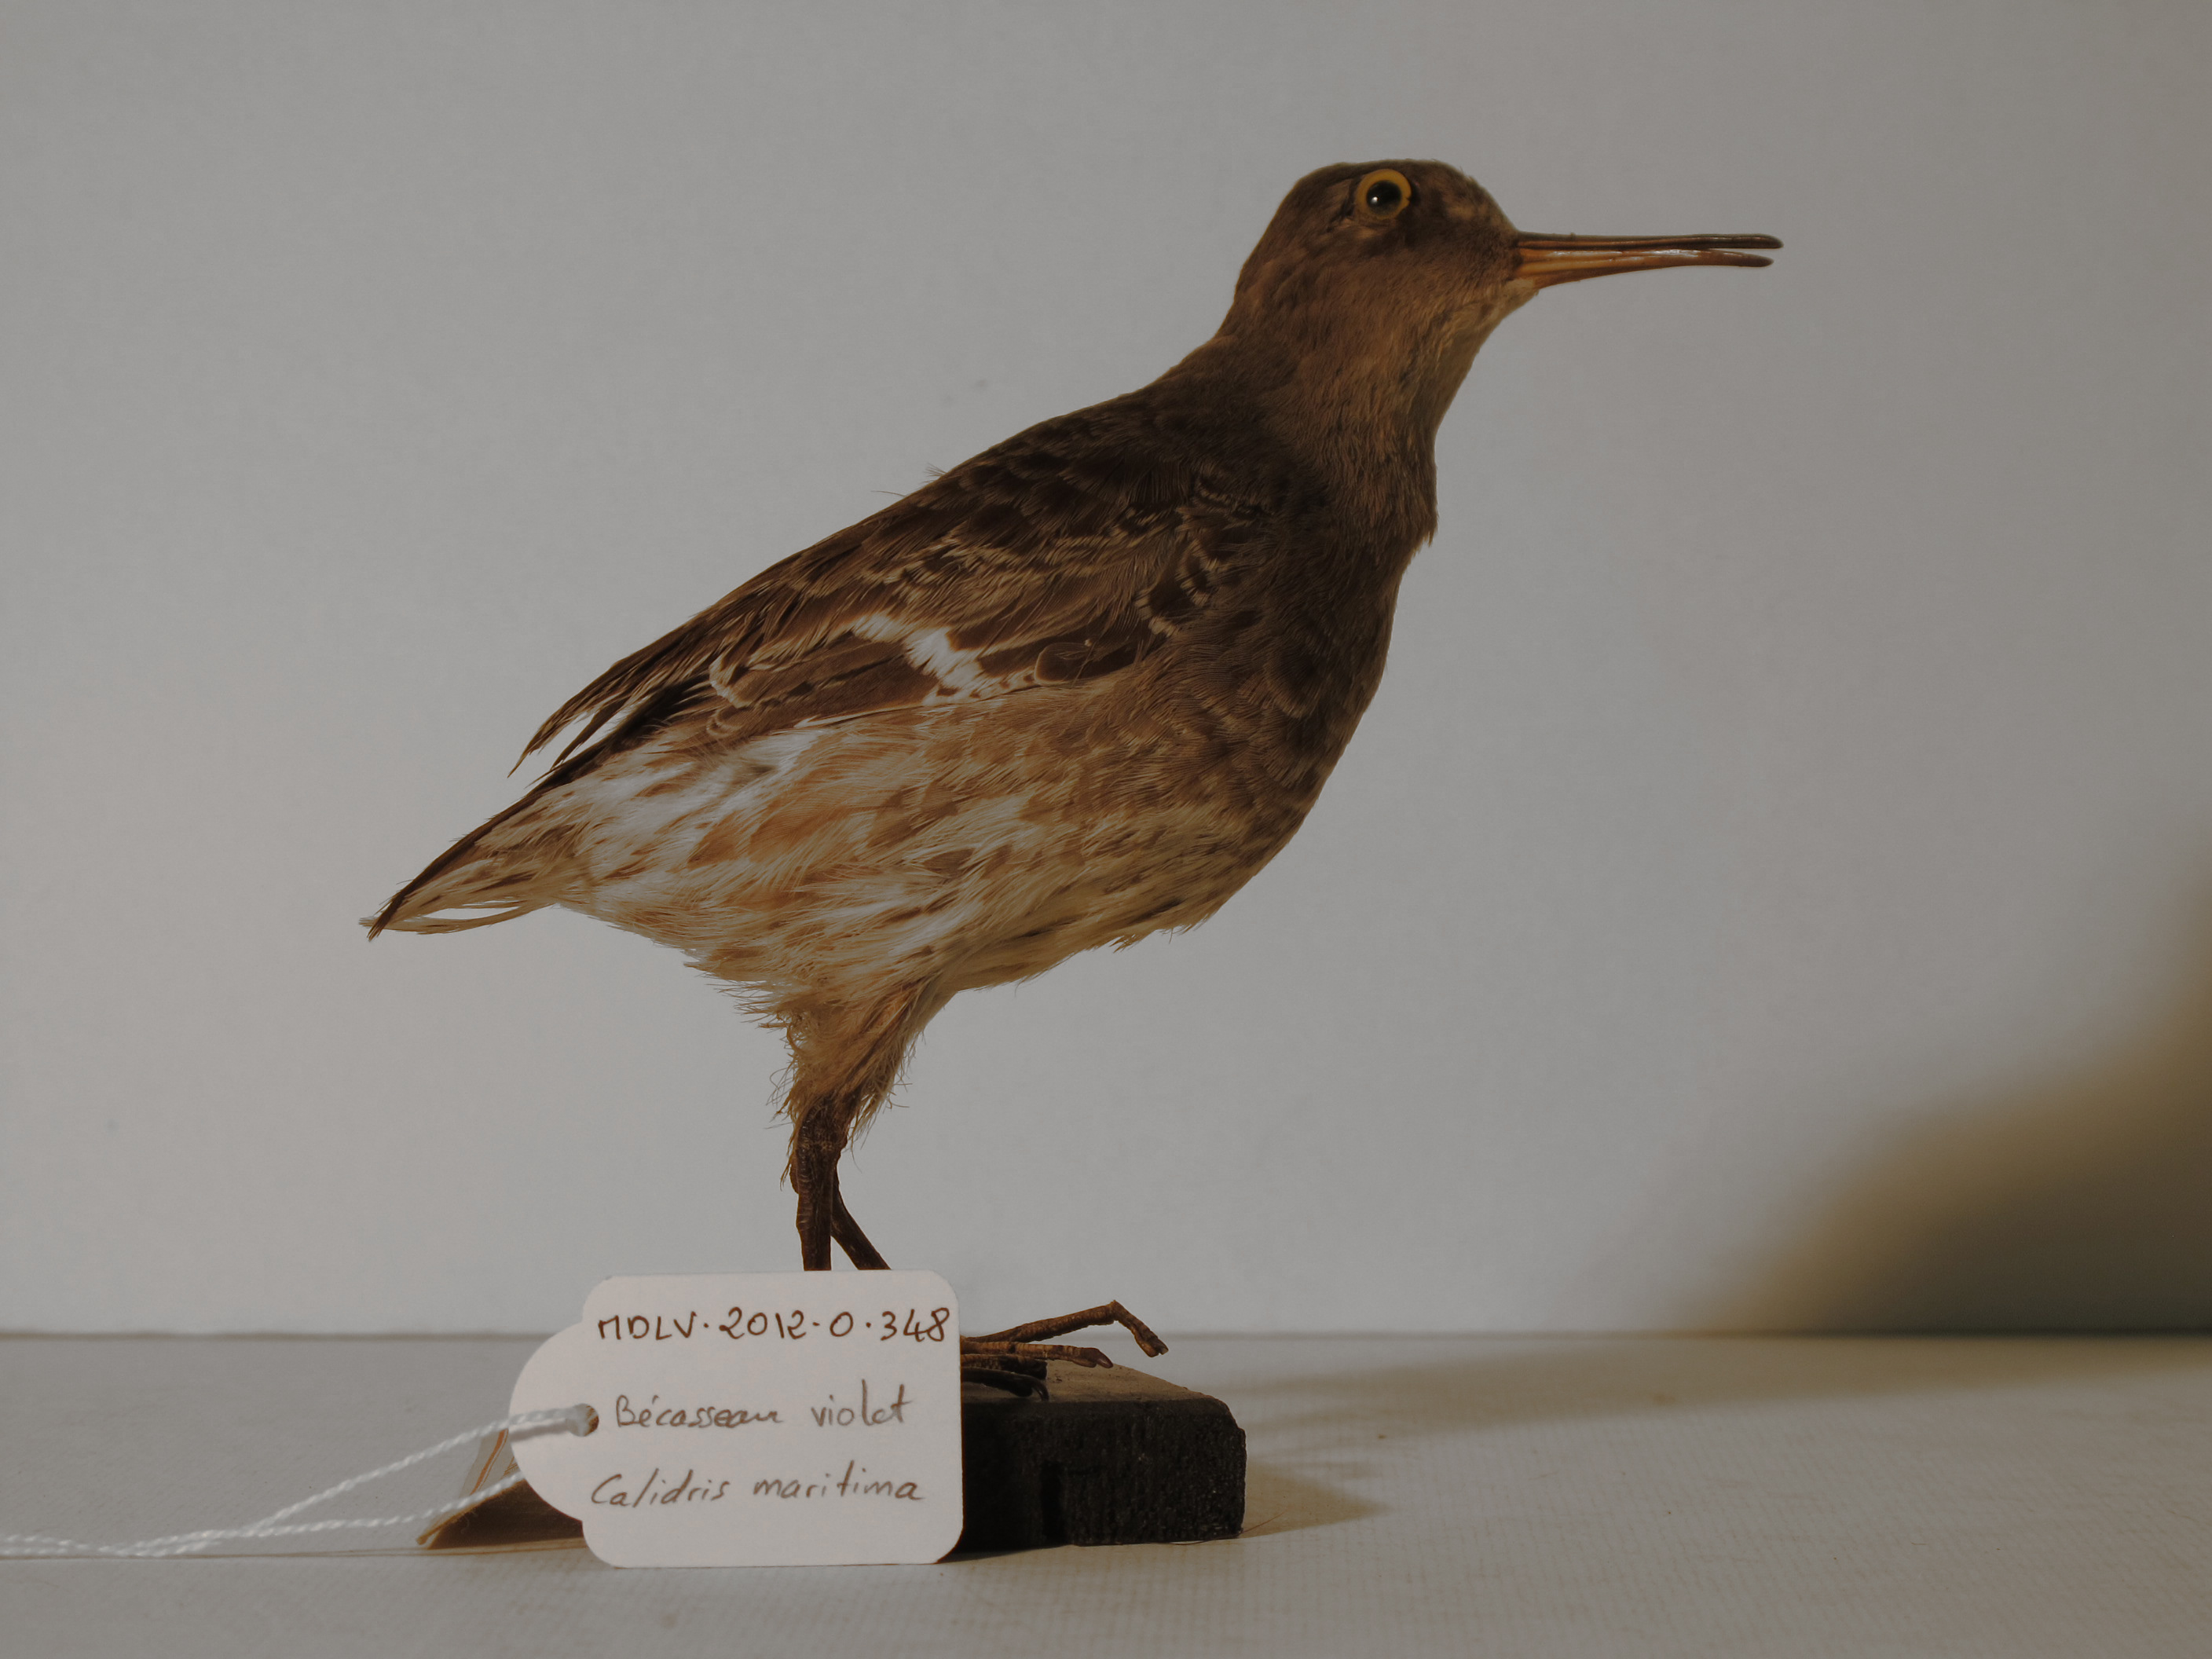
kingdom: Animalia
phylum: Chordata
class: Aves
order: Charadriiformes
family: Scolopacidae
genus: Calidris
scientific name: Calidris maritima
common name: Purple Sandpiper
